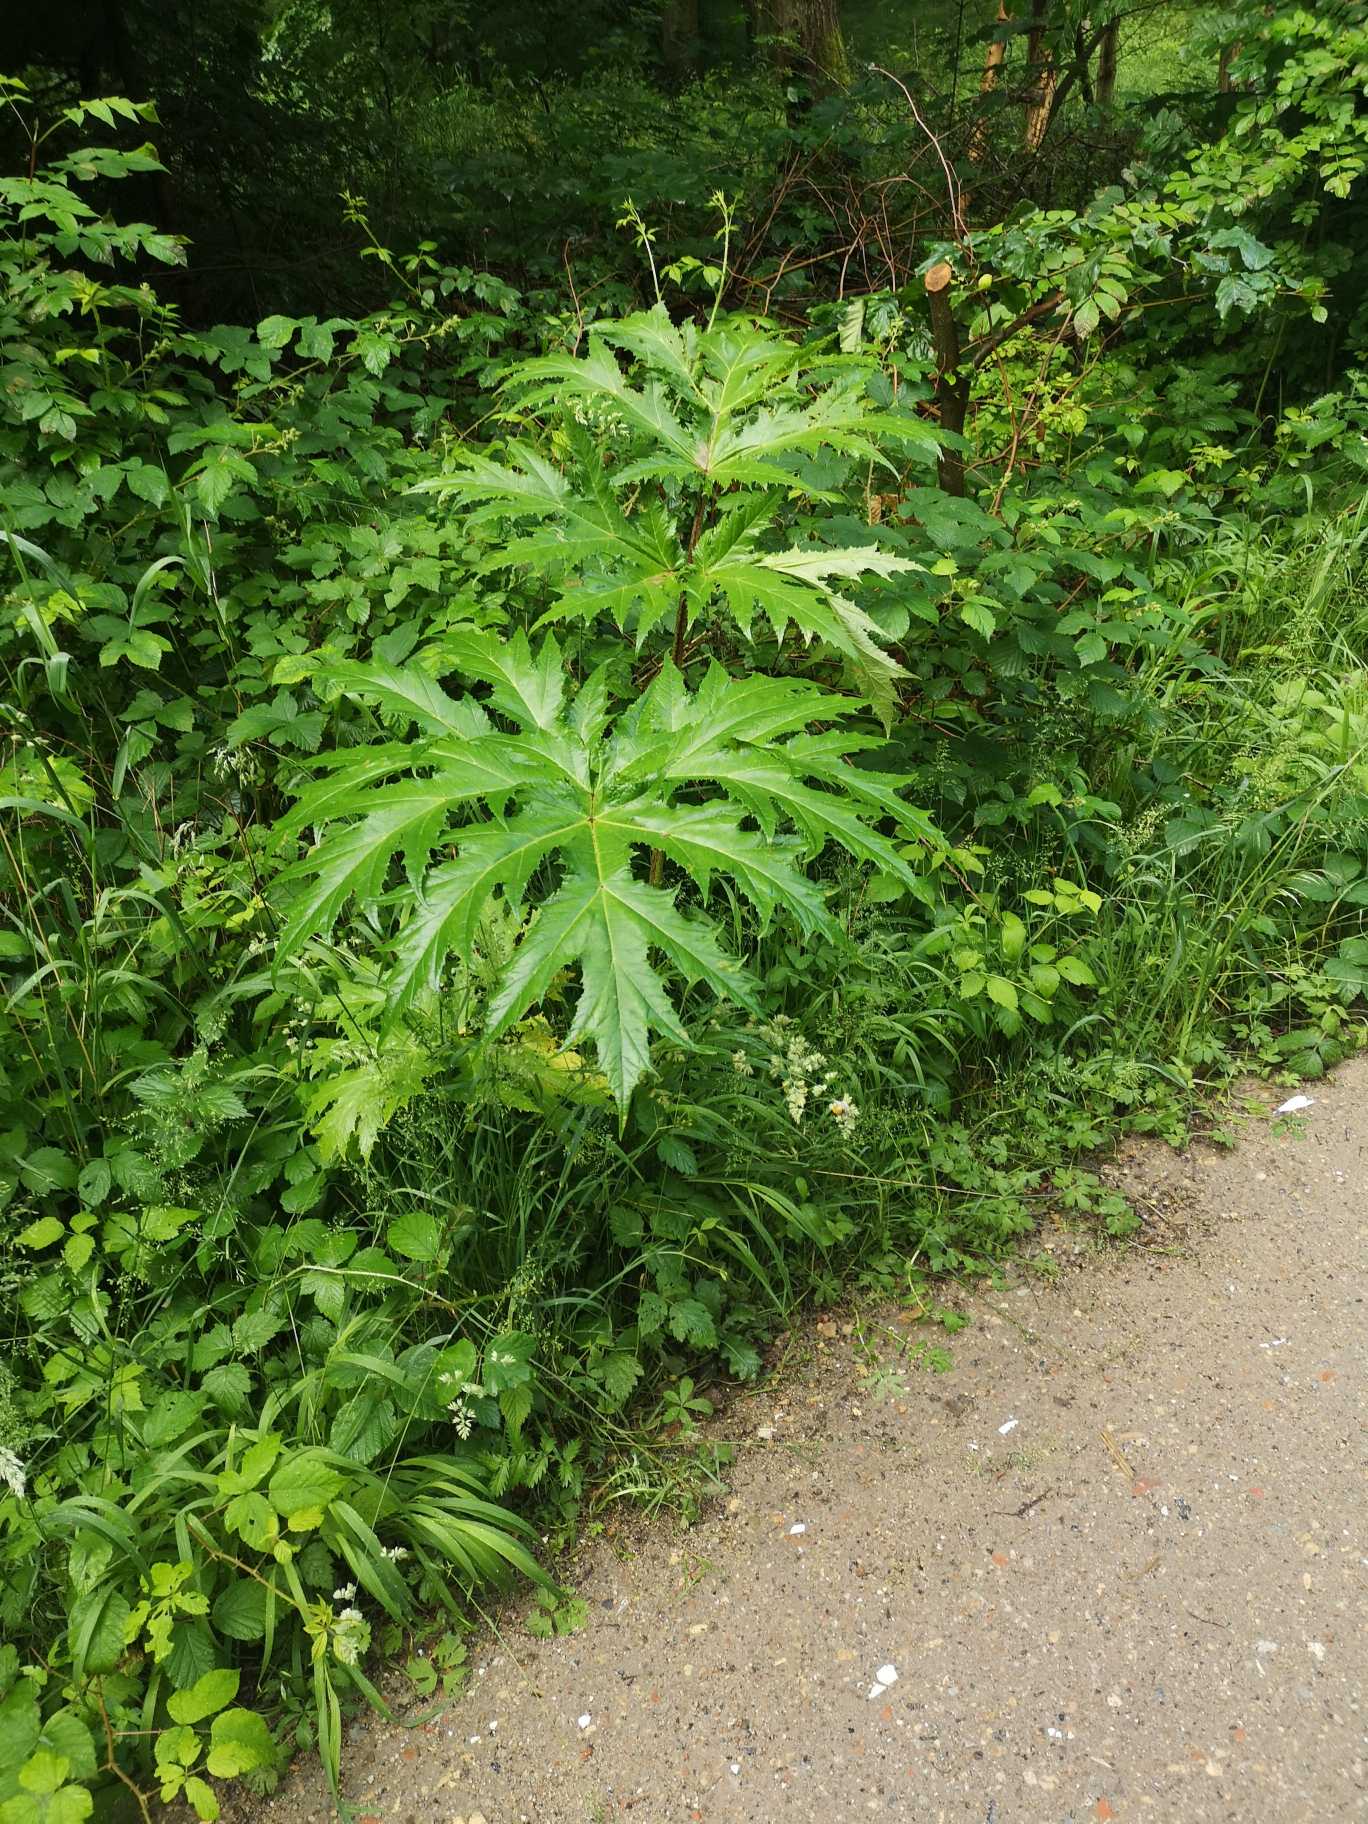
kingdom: Plantae
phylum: Tracheophyta
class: Magnoliopsida
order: Apiales
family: Apiaceae
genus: Heracleum
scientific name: Heracleum mantegazzianum
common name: Kæmpe-bjørneklo
